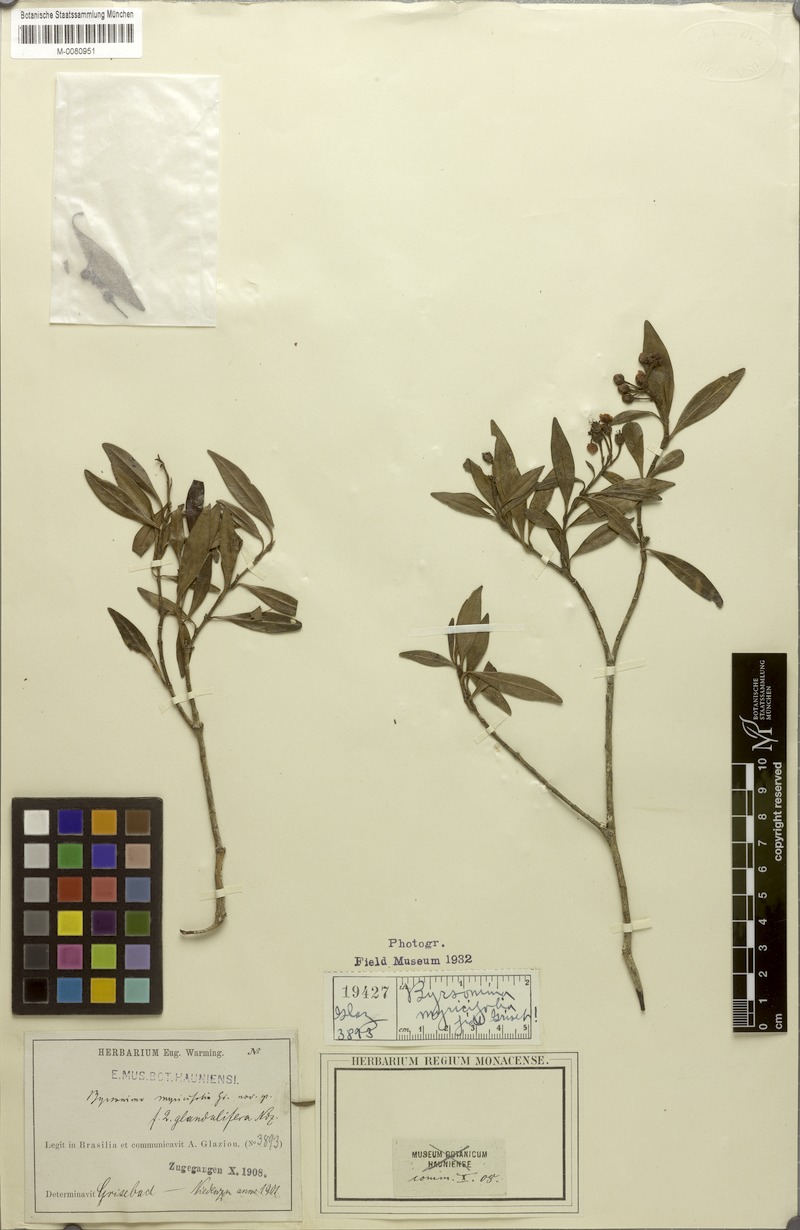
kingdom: Plantae
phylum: Tracheophyta
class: Magnoliopsida
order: Malpighiales
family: Malpighiaceae
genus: Byrsonima
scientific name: Byrsonima myricifolia
